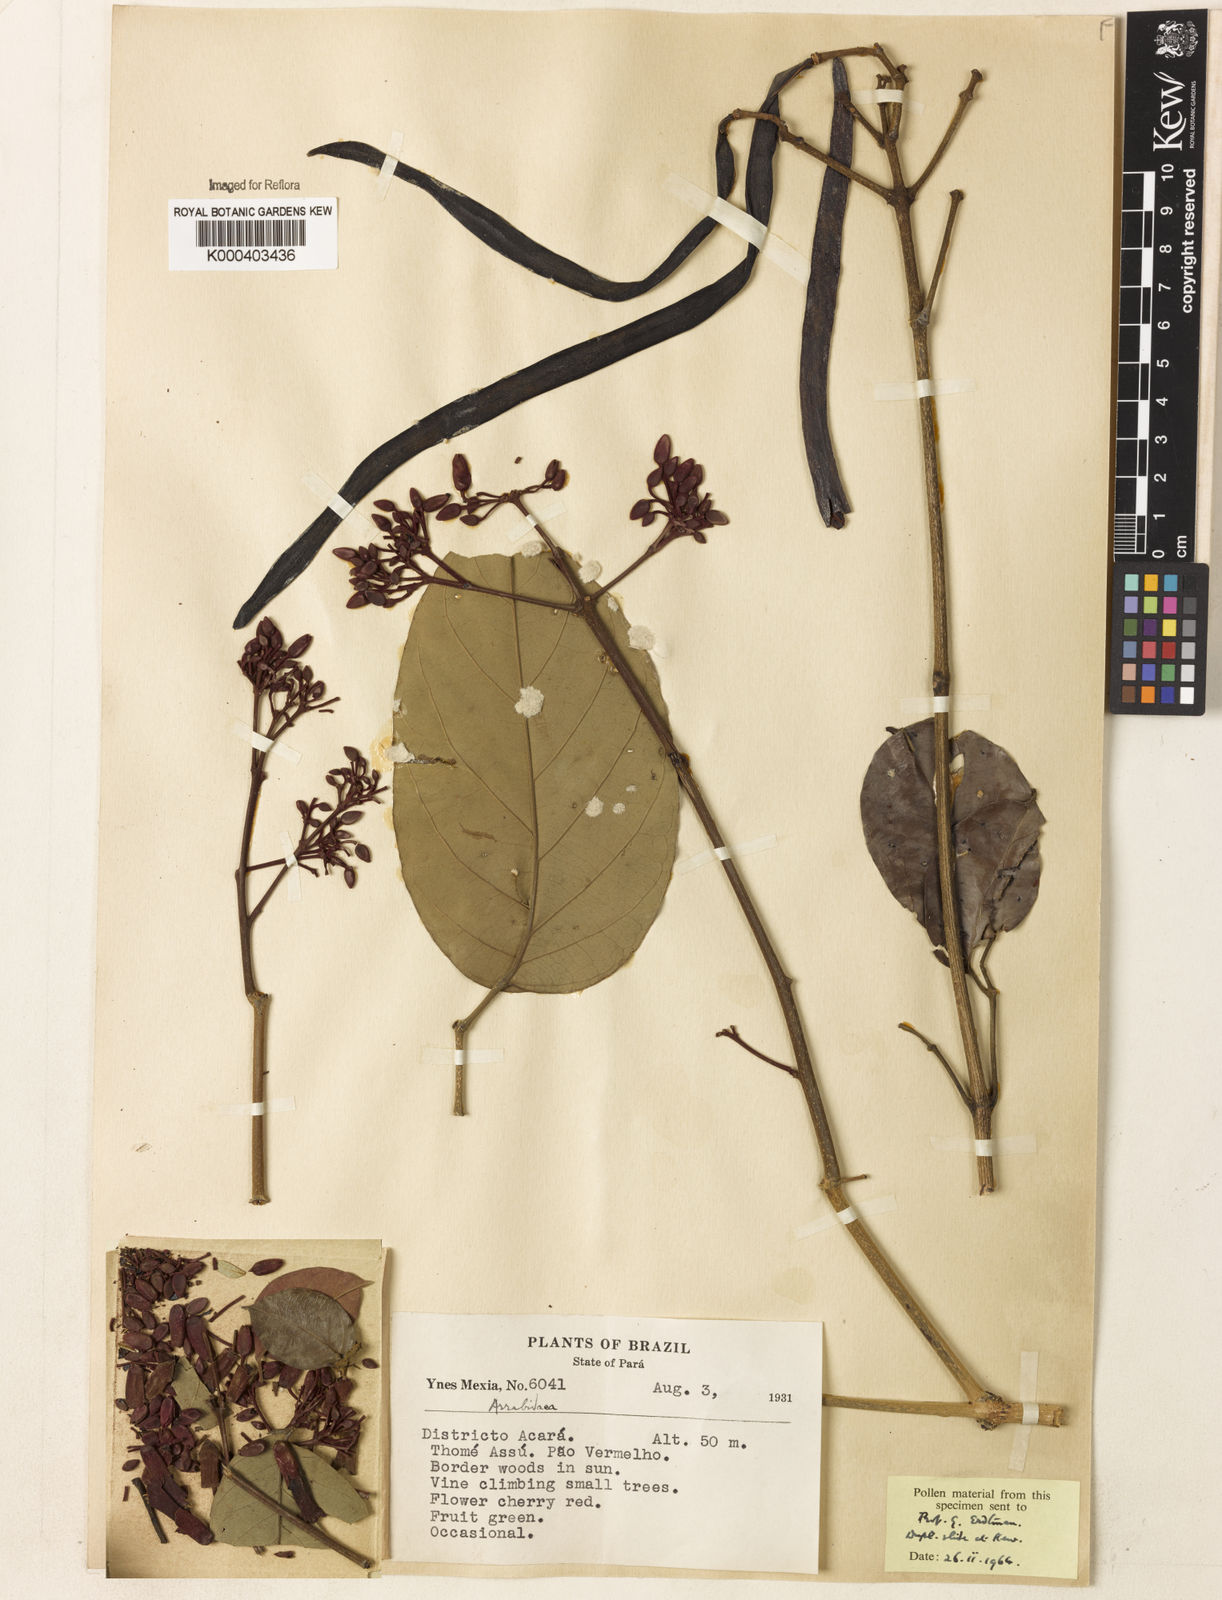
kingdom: Plantae
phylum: Tracheophyta
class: Magnoliopsida
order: Rosales
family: Rhamnaceae
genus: Arrabidaea
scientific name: Arrabidaea
